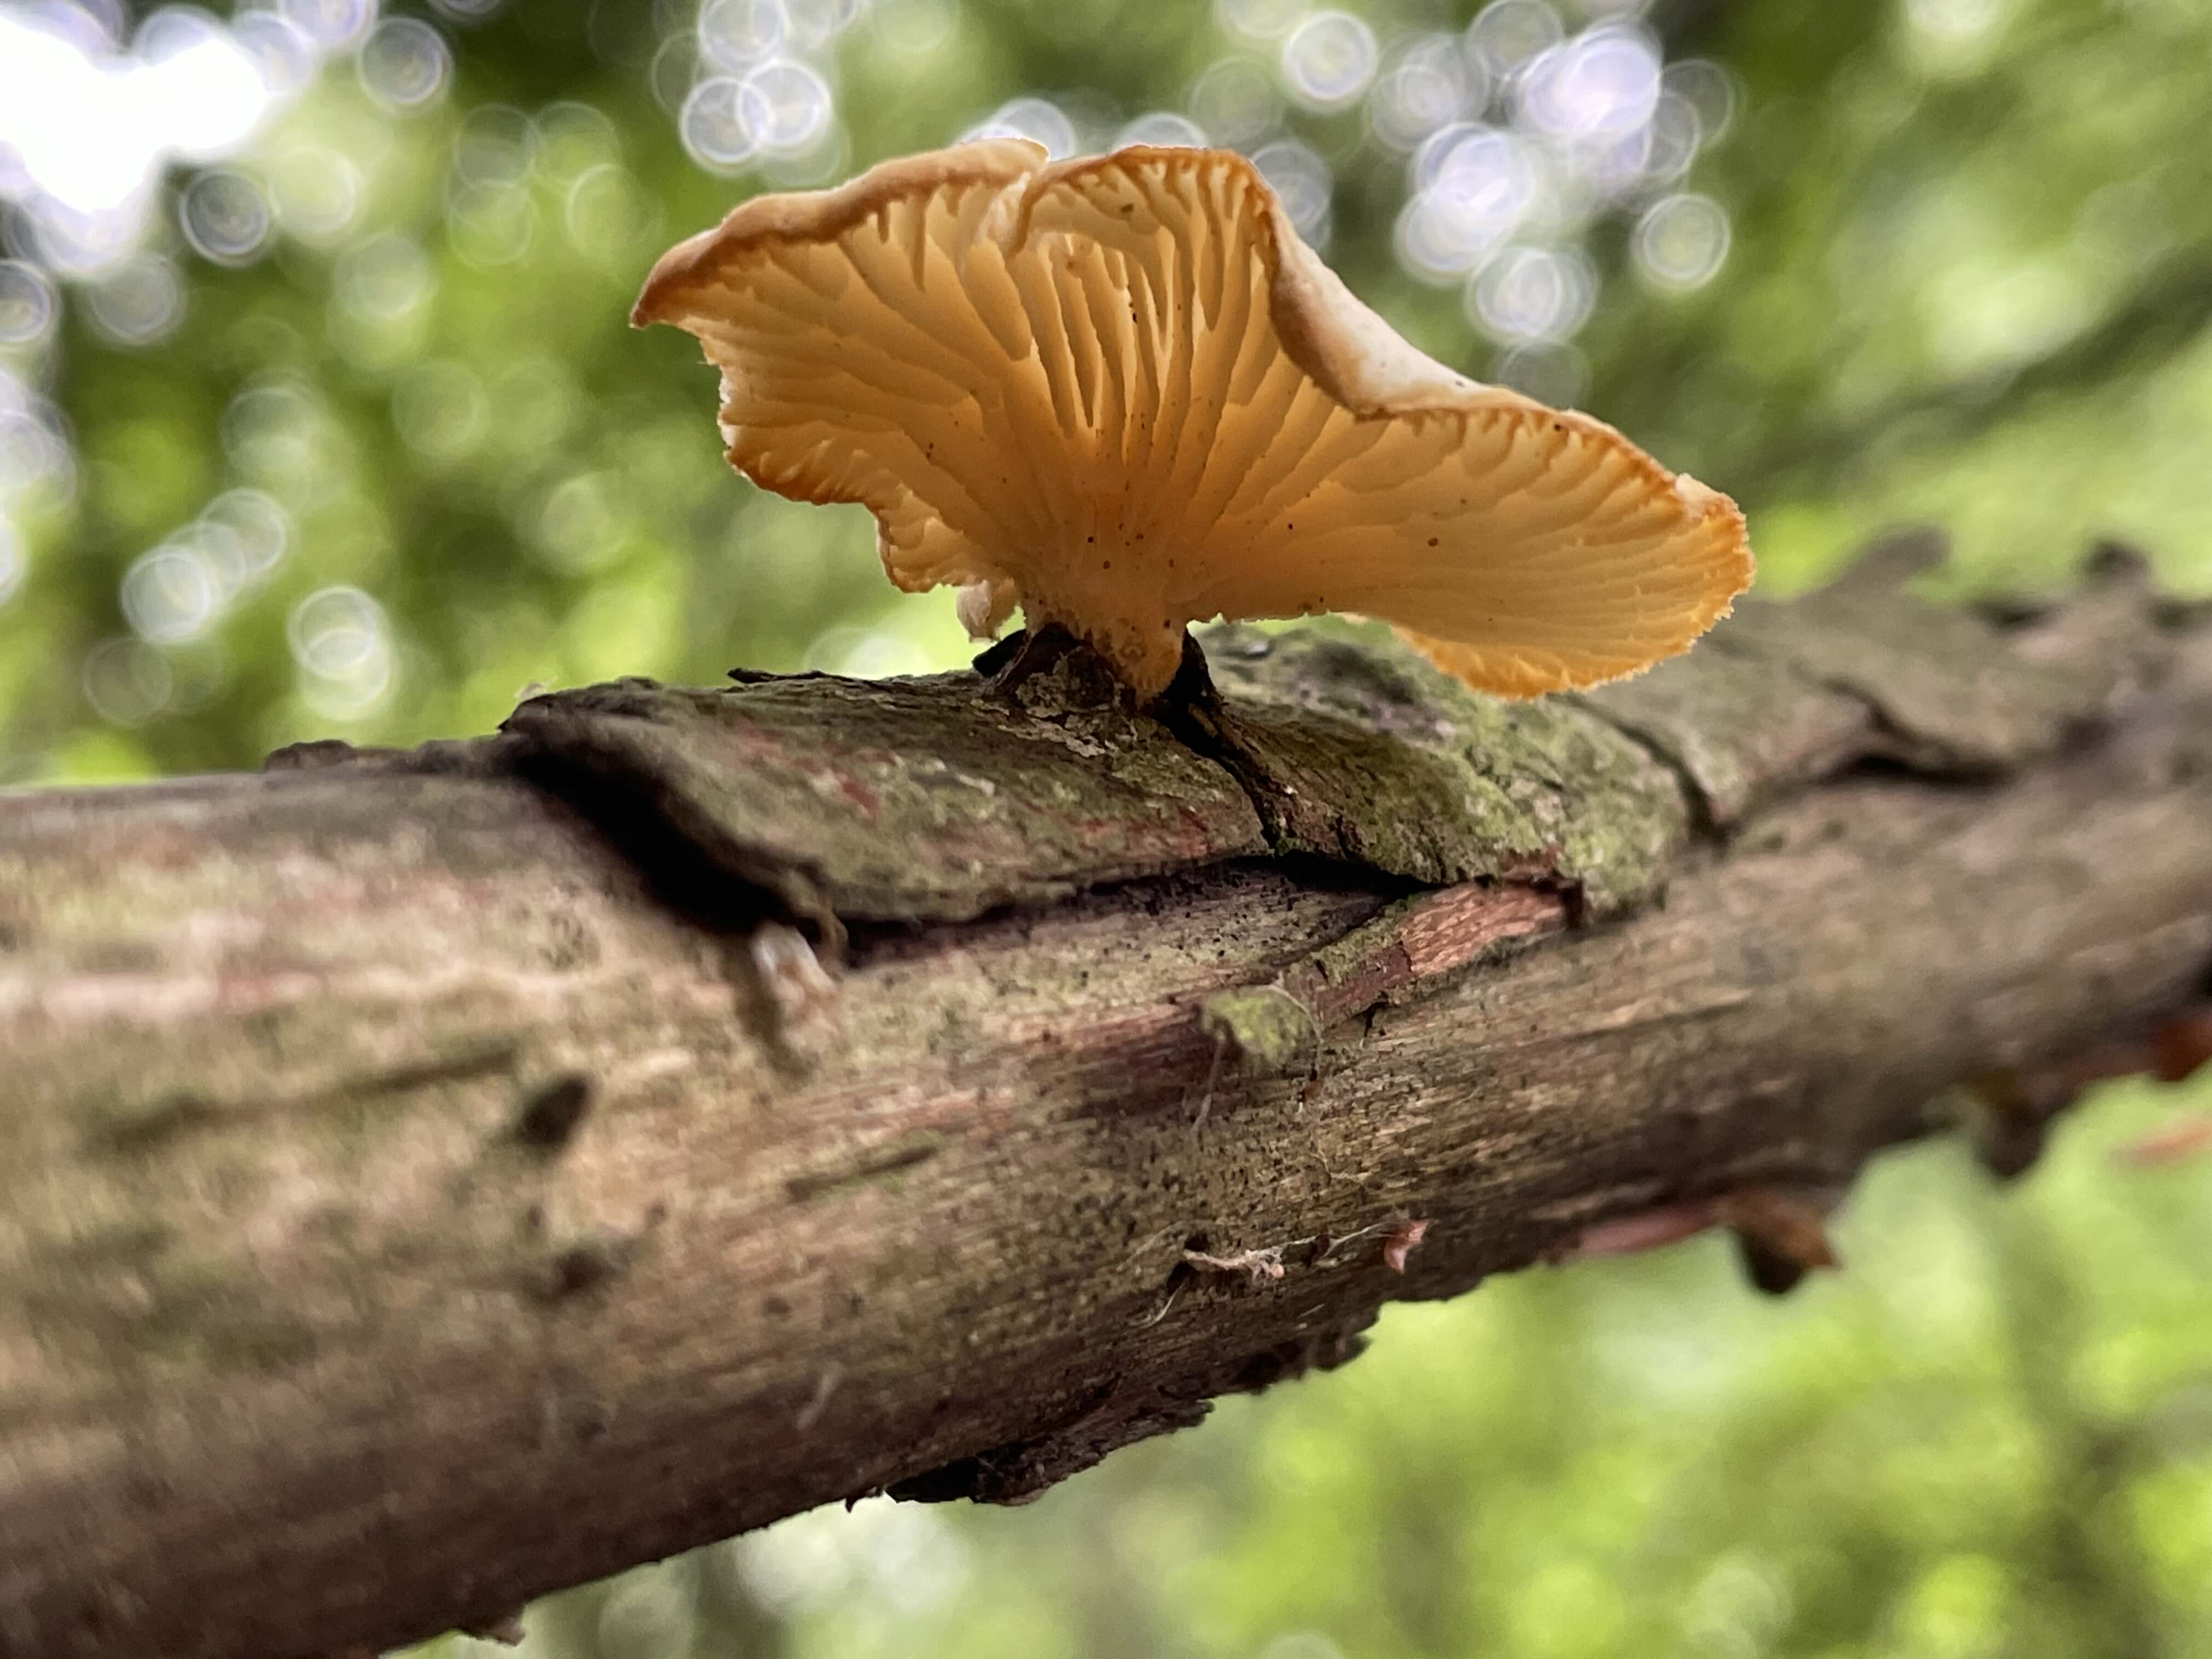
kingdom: Fungi
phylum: Basidiomycota
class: Agaricomycetes
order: Polyporales
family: Polyporaceae
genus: Neofavolus
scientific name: Neofavolus suavissimus
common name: anishat
